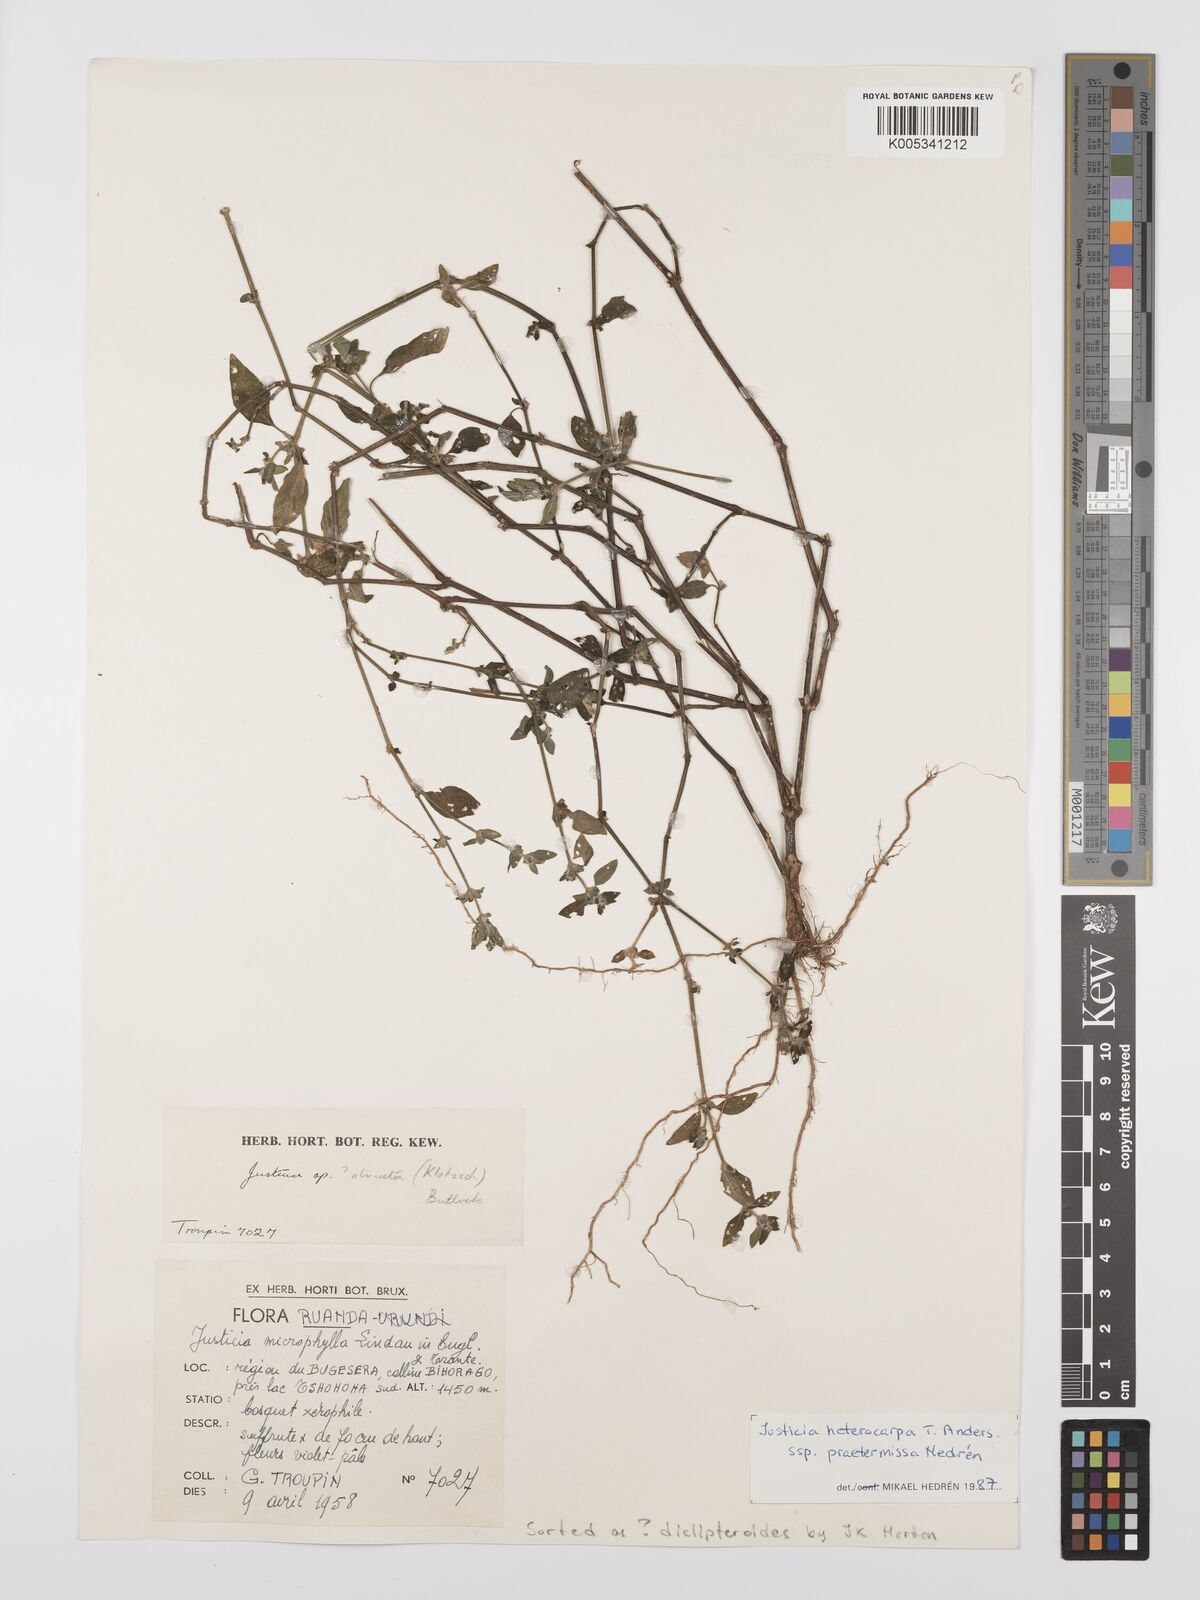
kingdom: Plantae
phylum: Tracheophyta
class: Magnoliopsida
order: Lamiales
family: Acanthaceae
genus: Justicia
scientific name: Justicia heterocarpa
